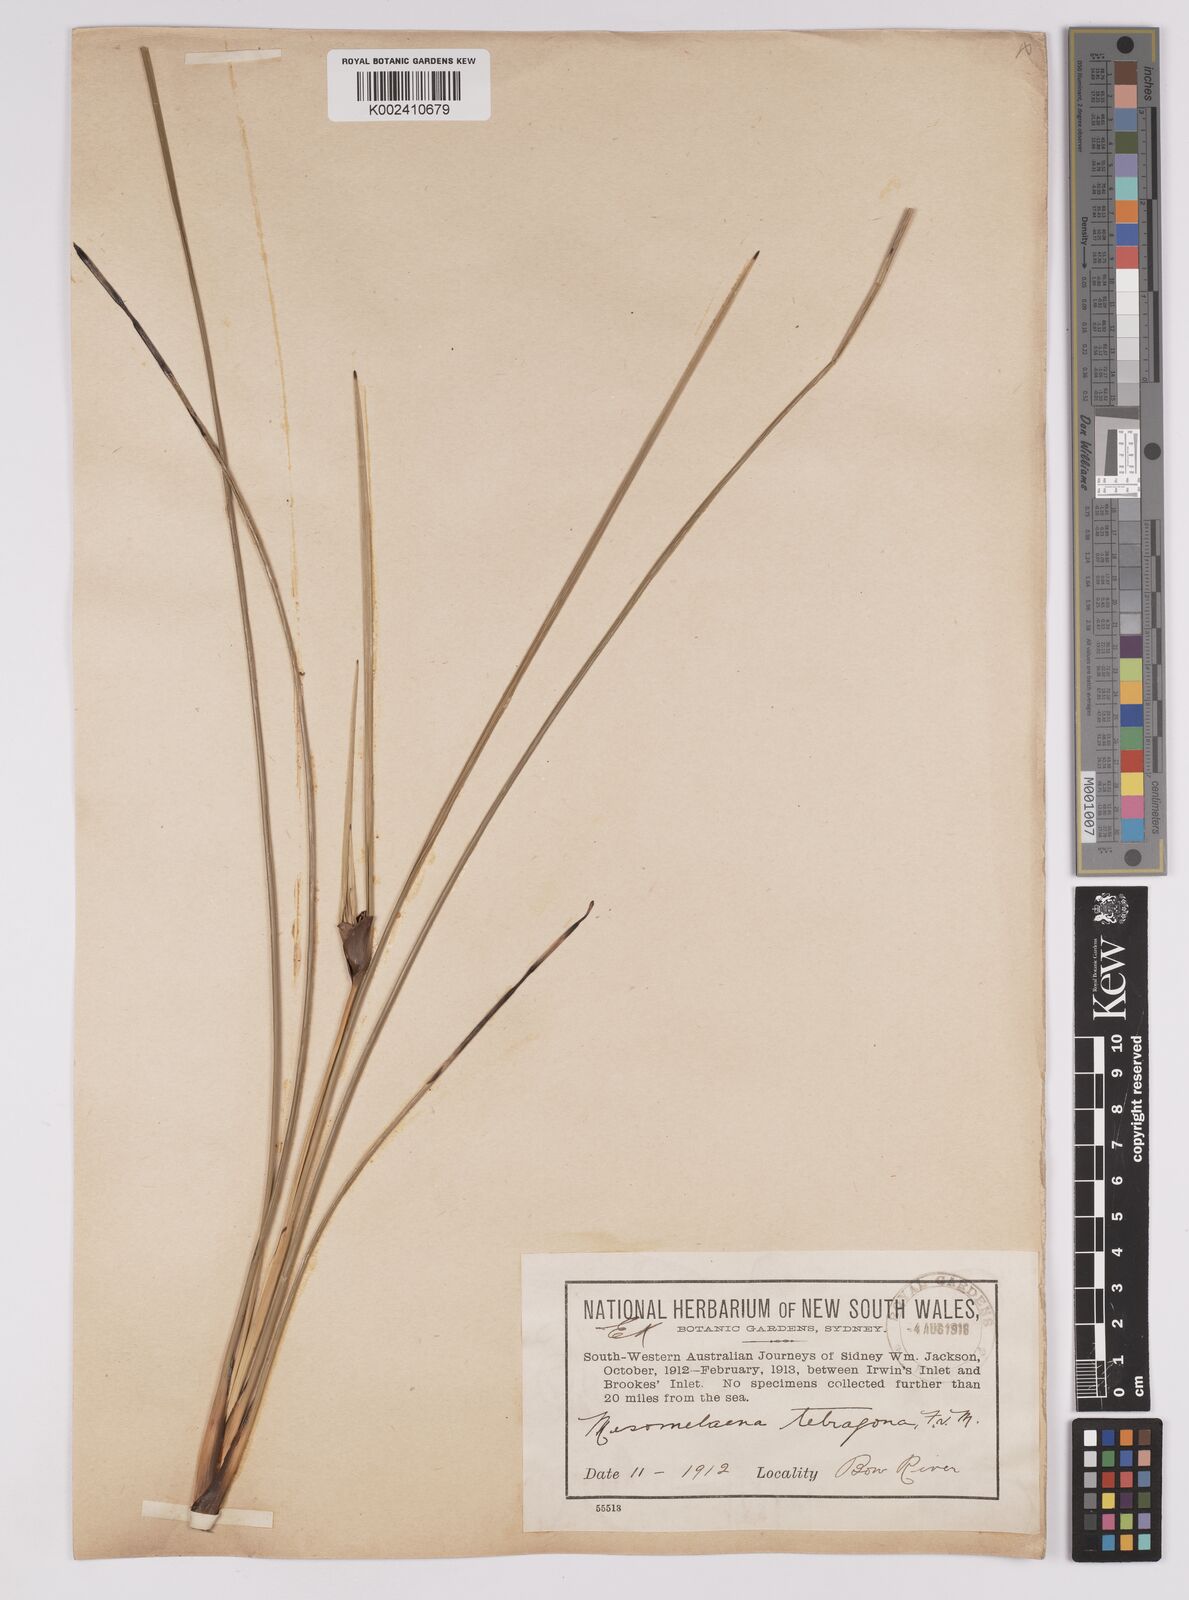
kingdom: Plantae
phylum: Tracheophyta
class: Liliopsida
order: Poales
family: Cyperaceae
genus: Mesomelaena
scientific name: Mesomelaena tetragona
